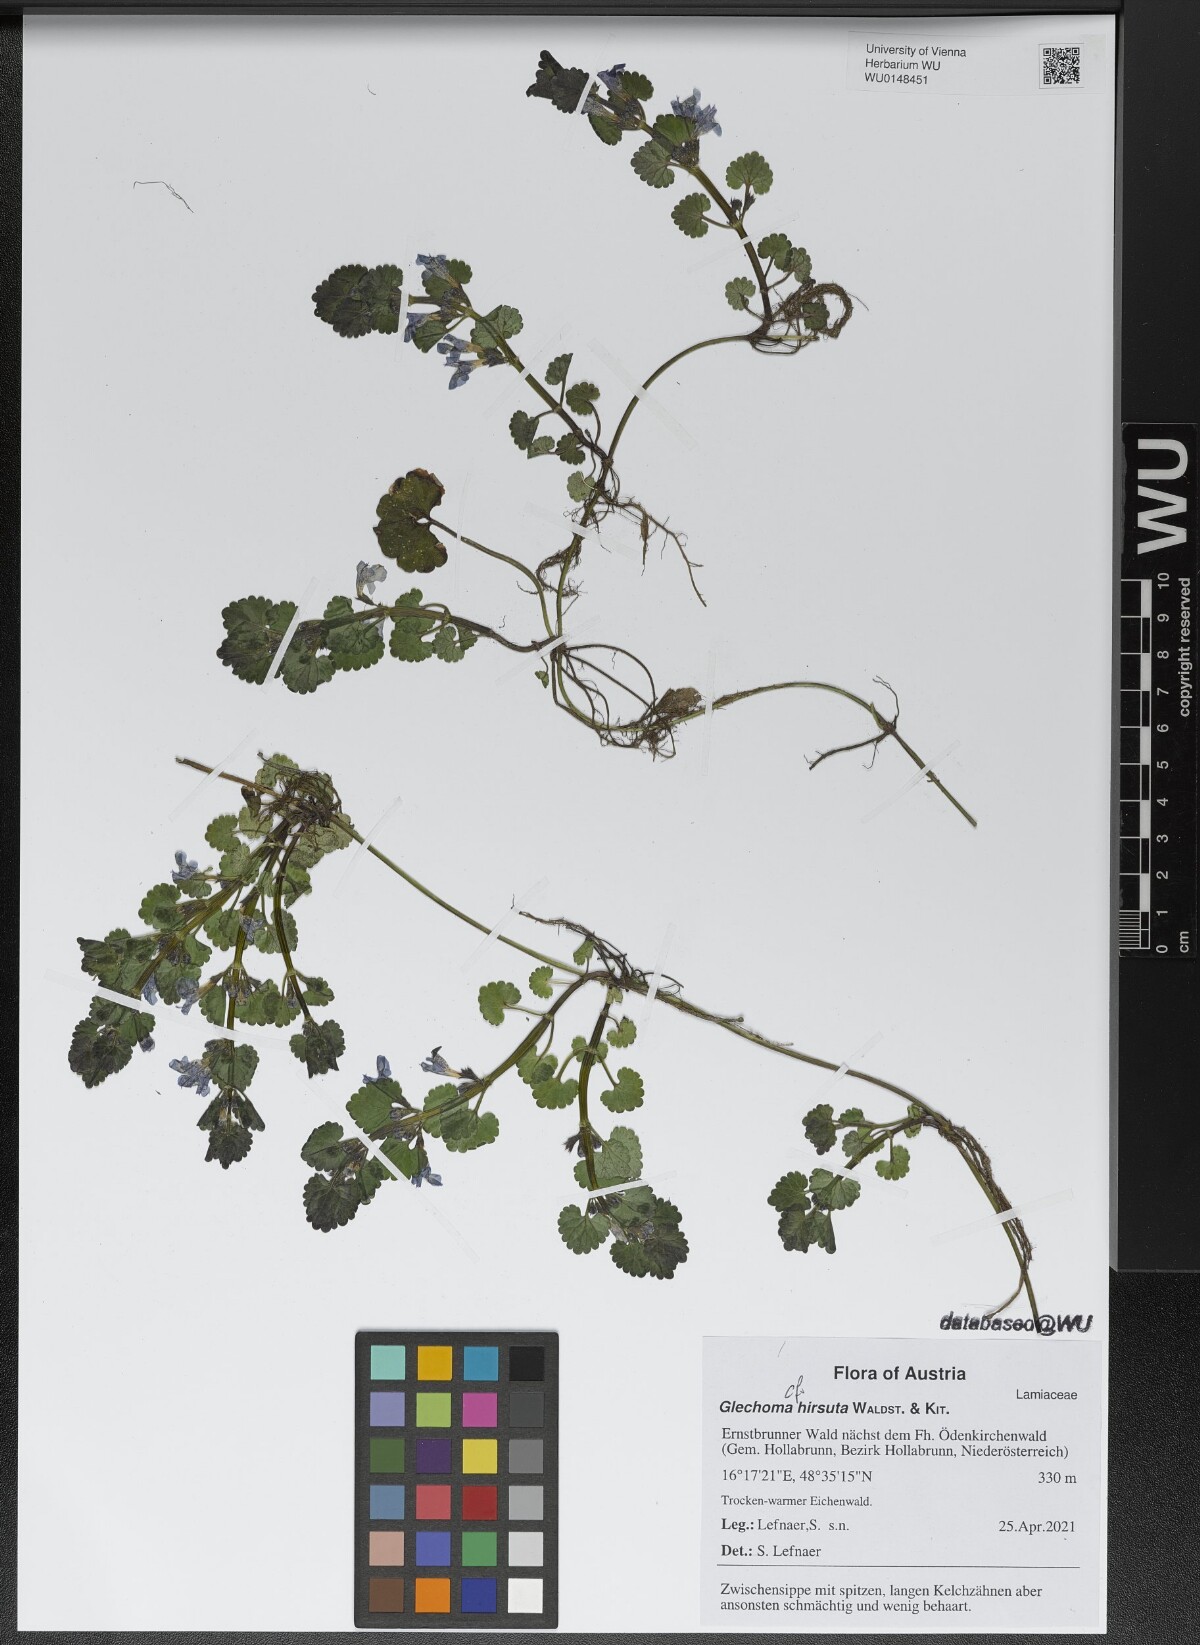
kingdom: Plantae
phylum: Tracheophyta
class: Magnoliopsida
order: Lamiales
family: Lamiaceae
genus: Glechoma
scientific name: Glechoma hirsuta
